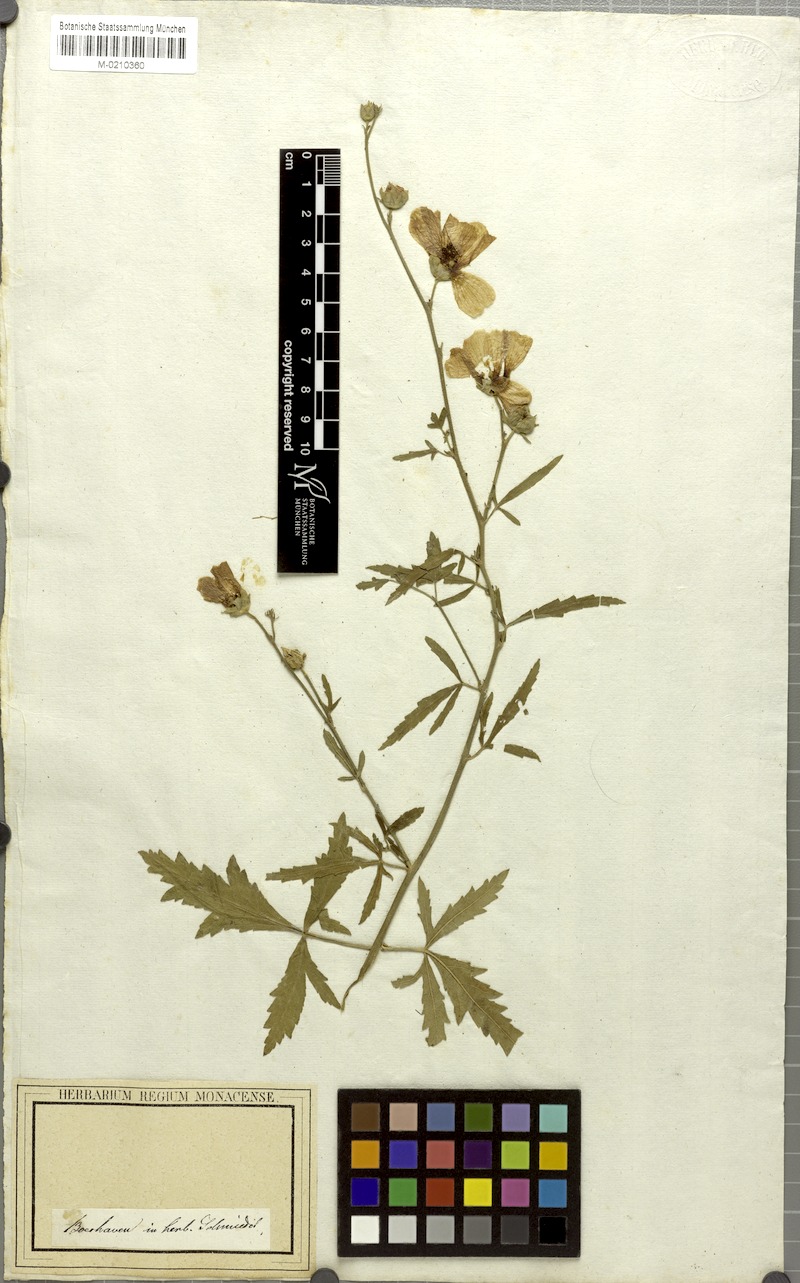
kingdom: Plantae
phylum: Tracheophyta
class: Magnoliopsida
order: Malvales
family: Malvaceae
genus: Althaea
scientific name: Althaea cannabina
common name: Palm-leaf marshmallow
